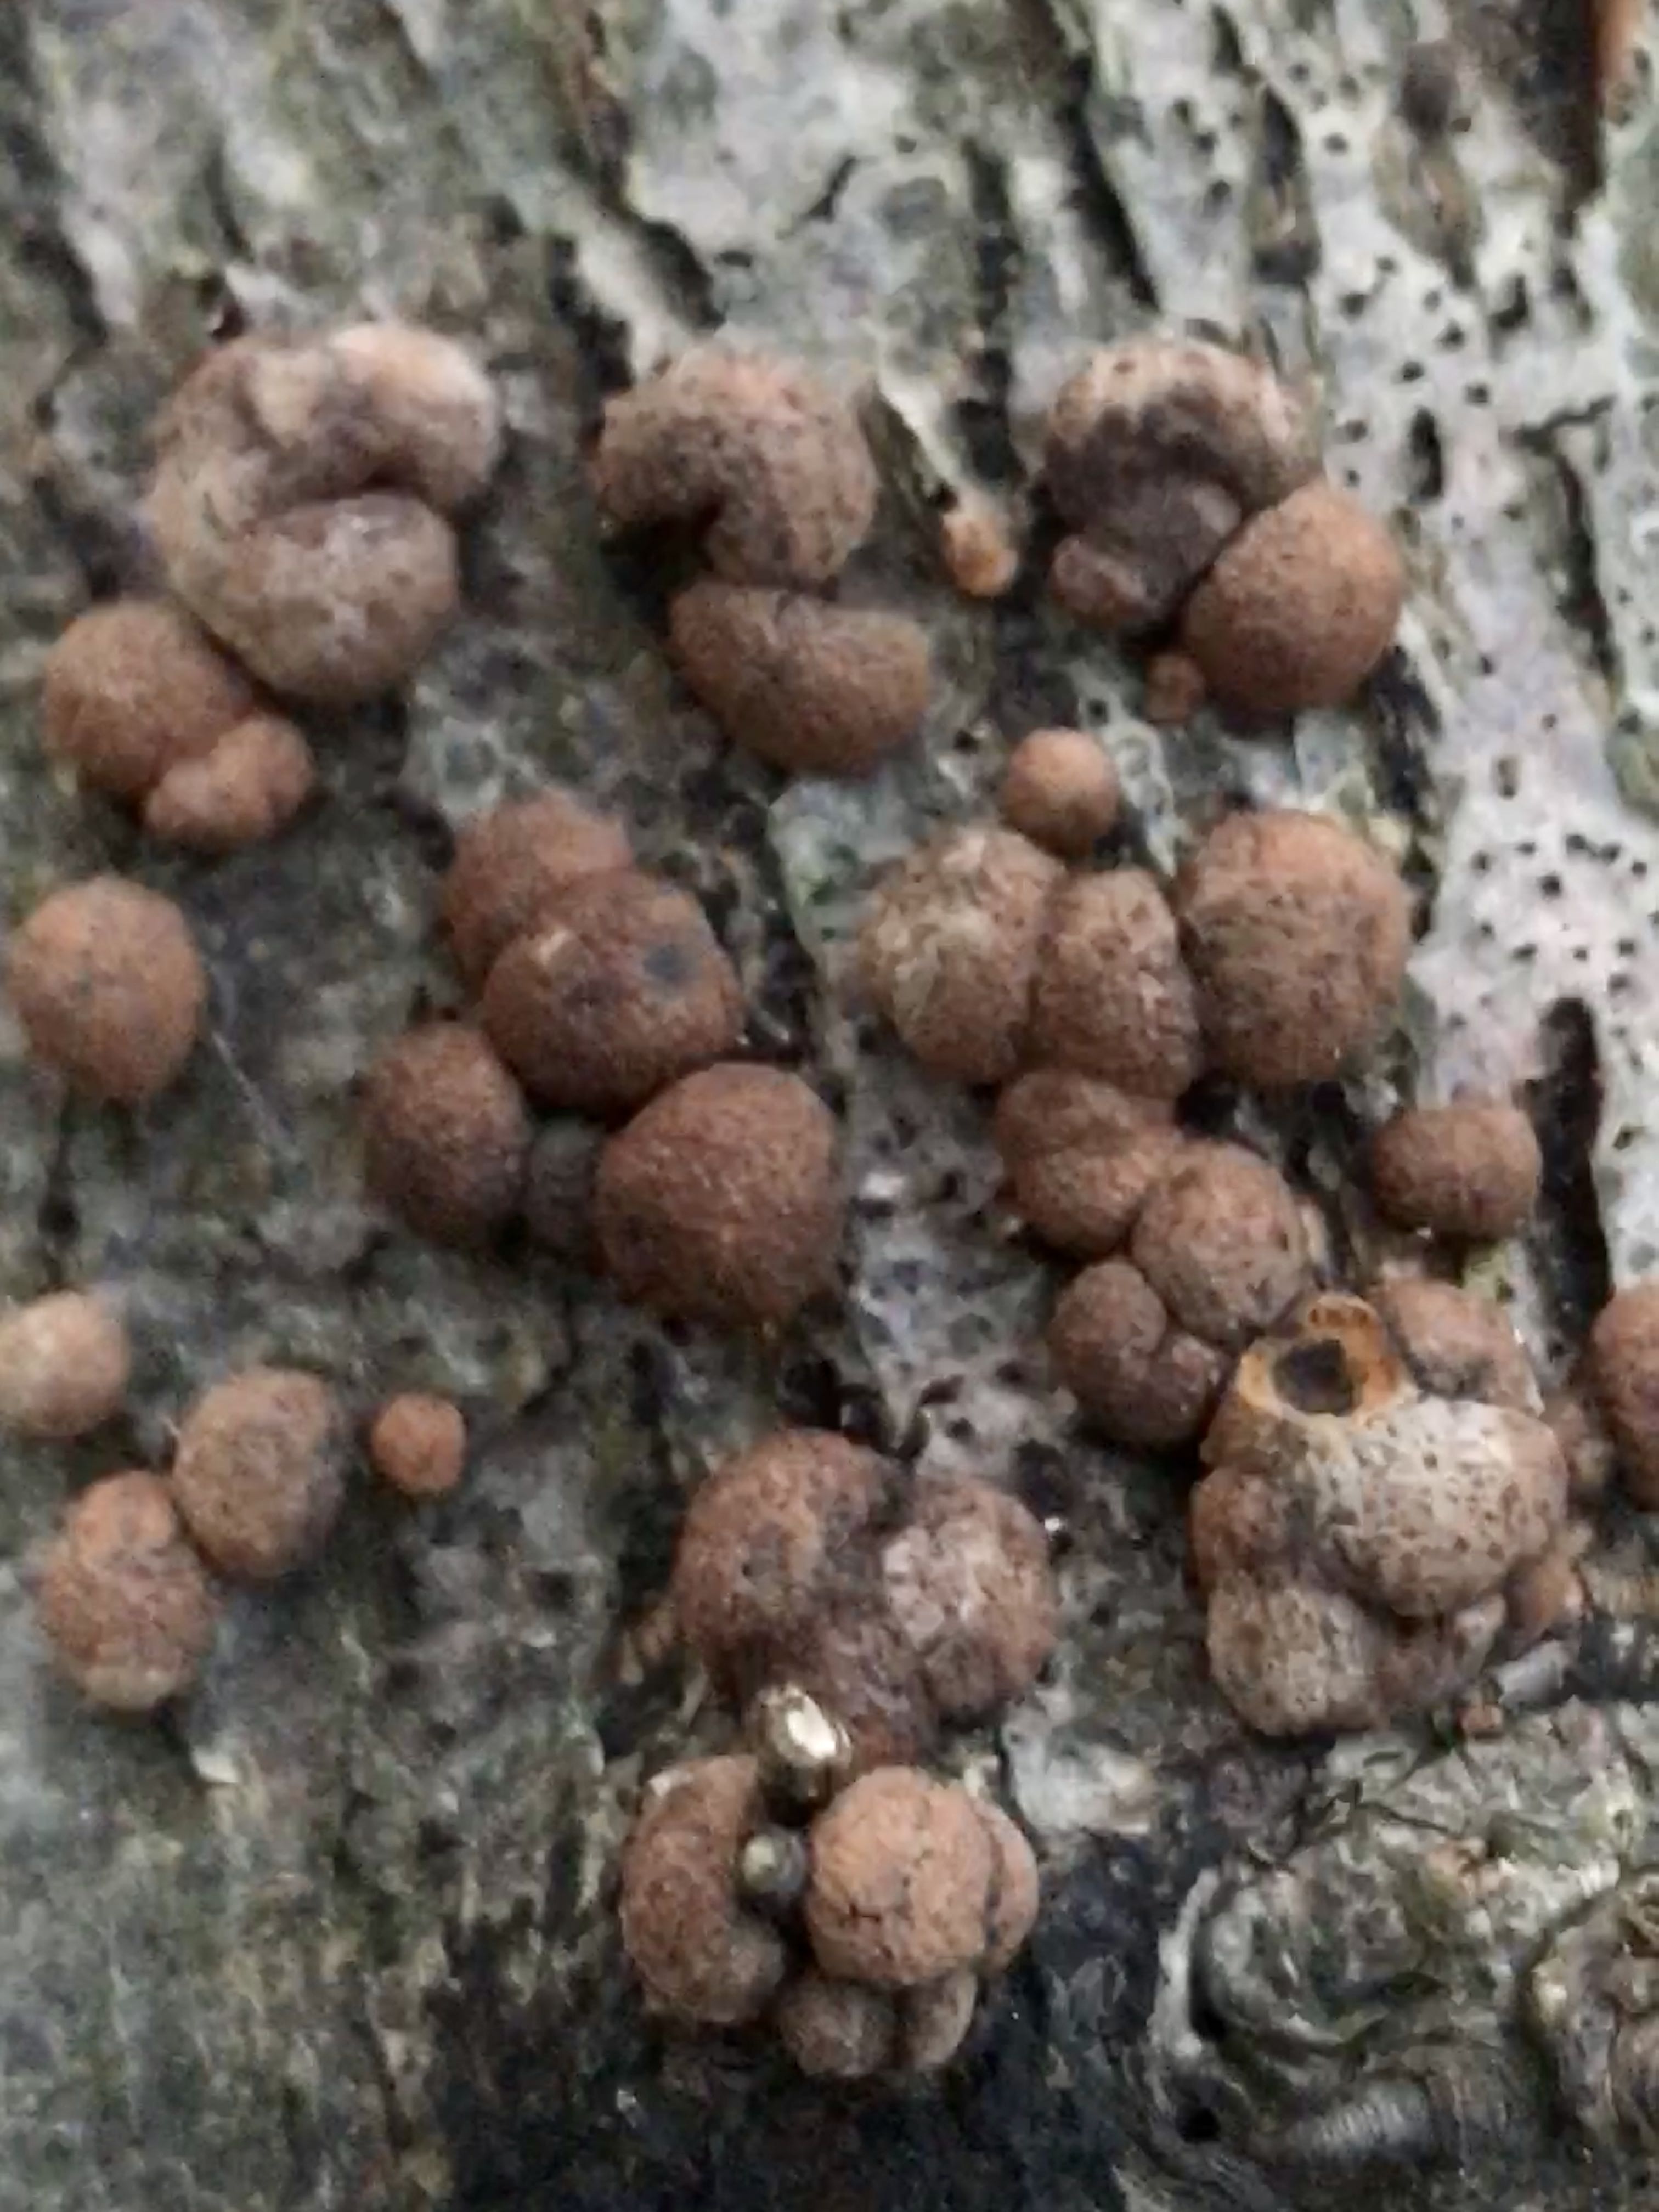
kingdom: Fungi
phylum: Ascomycota
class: Sordariomycetes
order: Xylariales
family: Hypoxylaceae
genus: Hypoxylon
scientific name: Hypoxylon fragiforme
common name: kuljordbær
